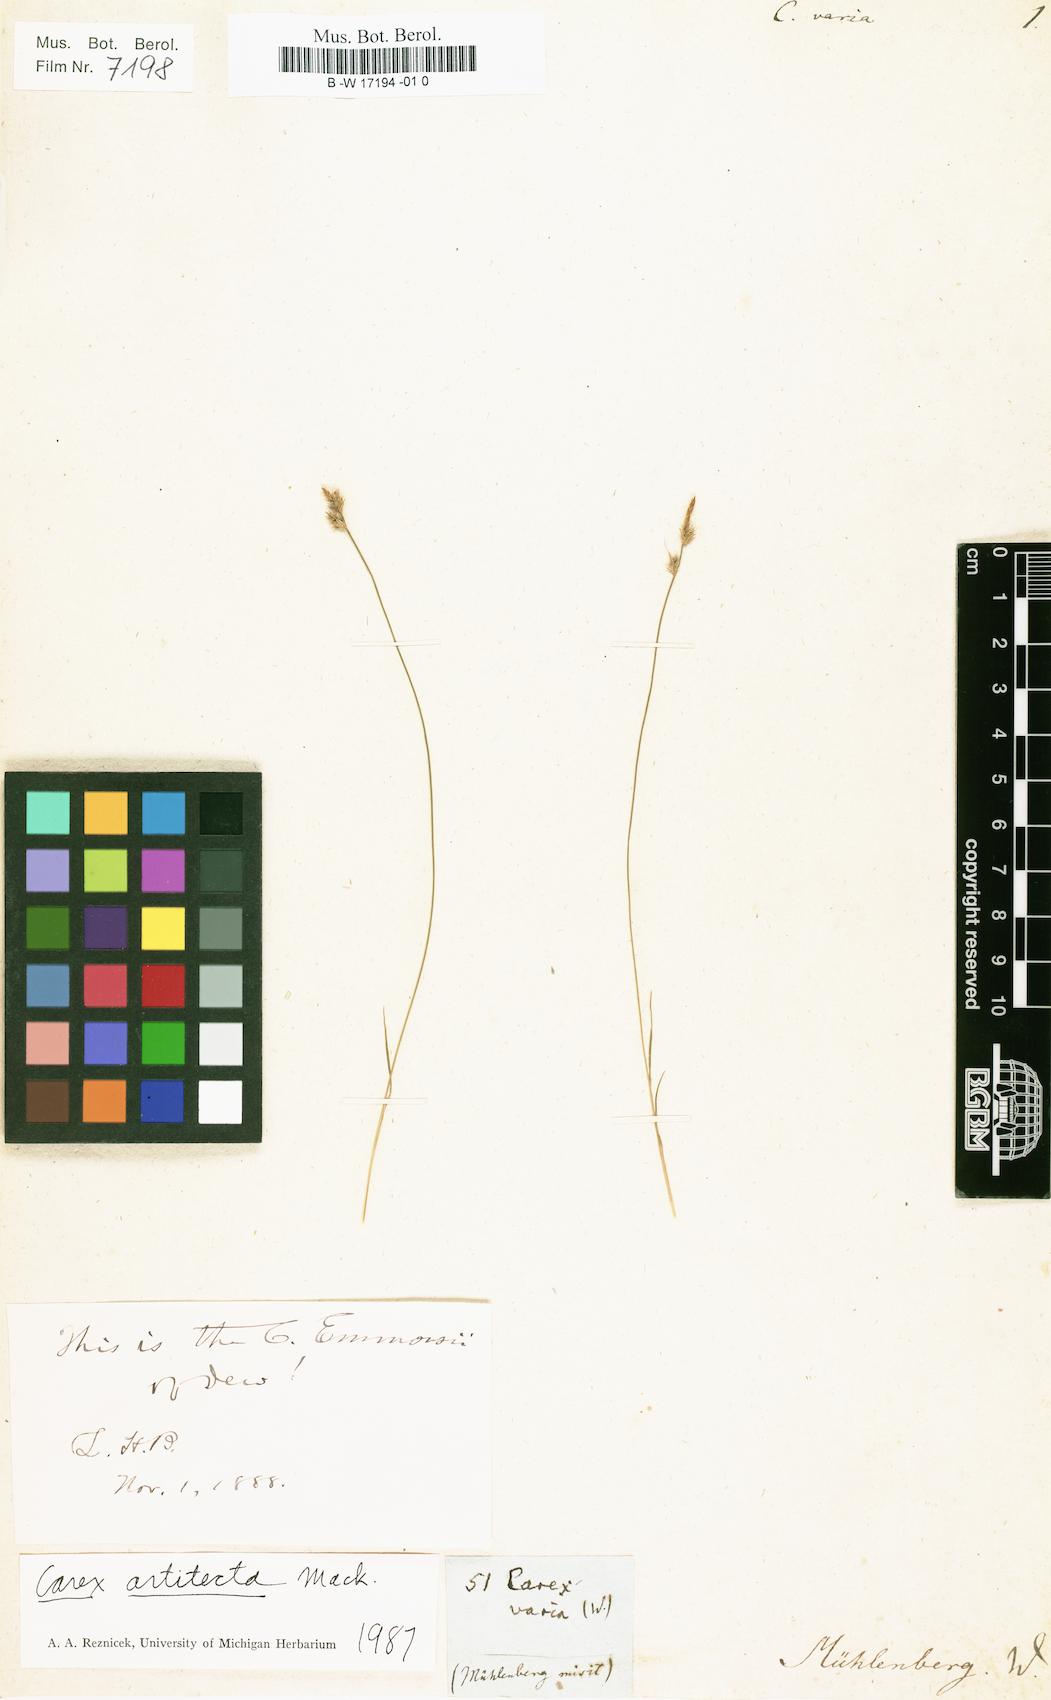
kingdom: Plantae
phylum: Tracheophyta
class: Liliopsida
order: Poales
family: Cyperaceae
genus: Carex
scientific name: Carex varia
